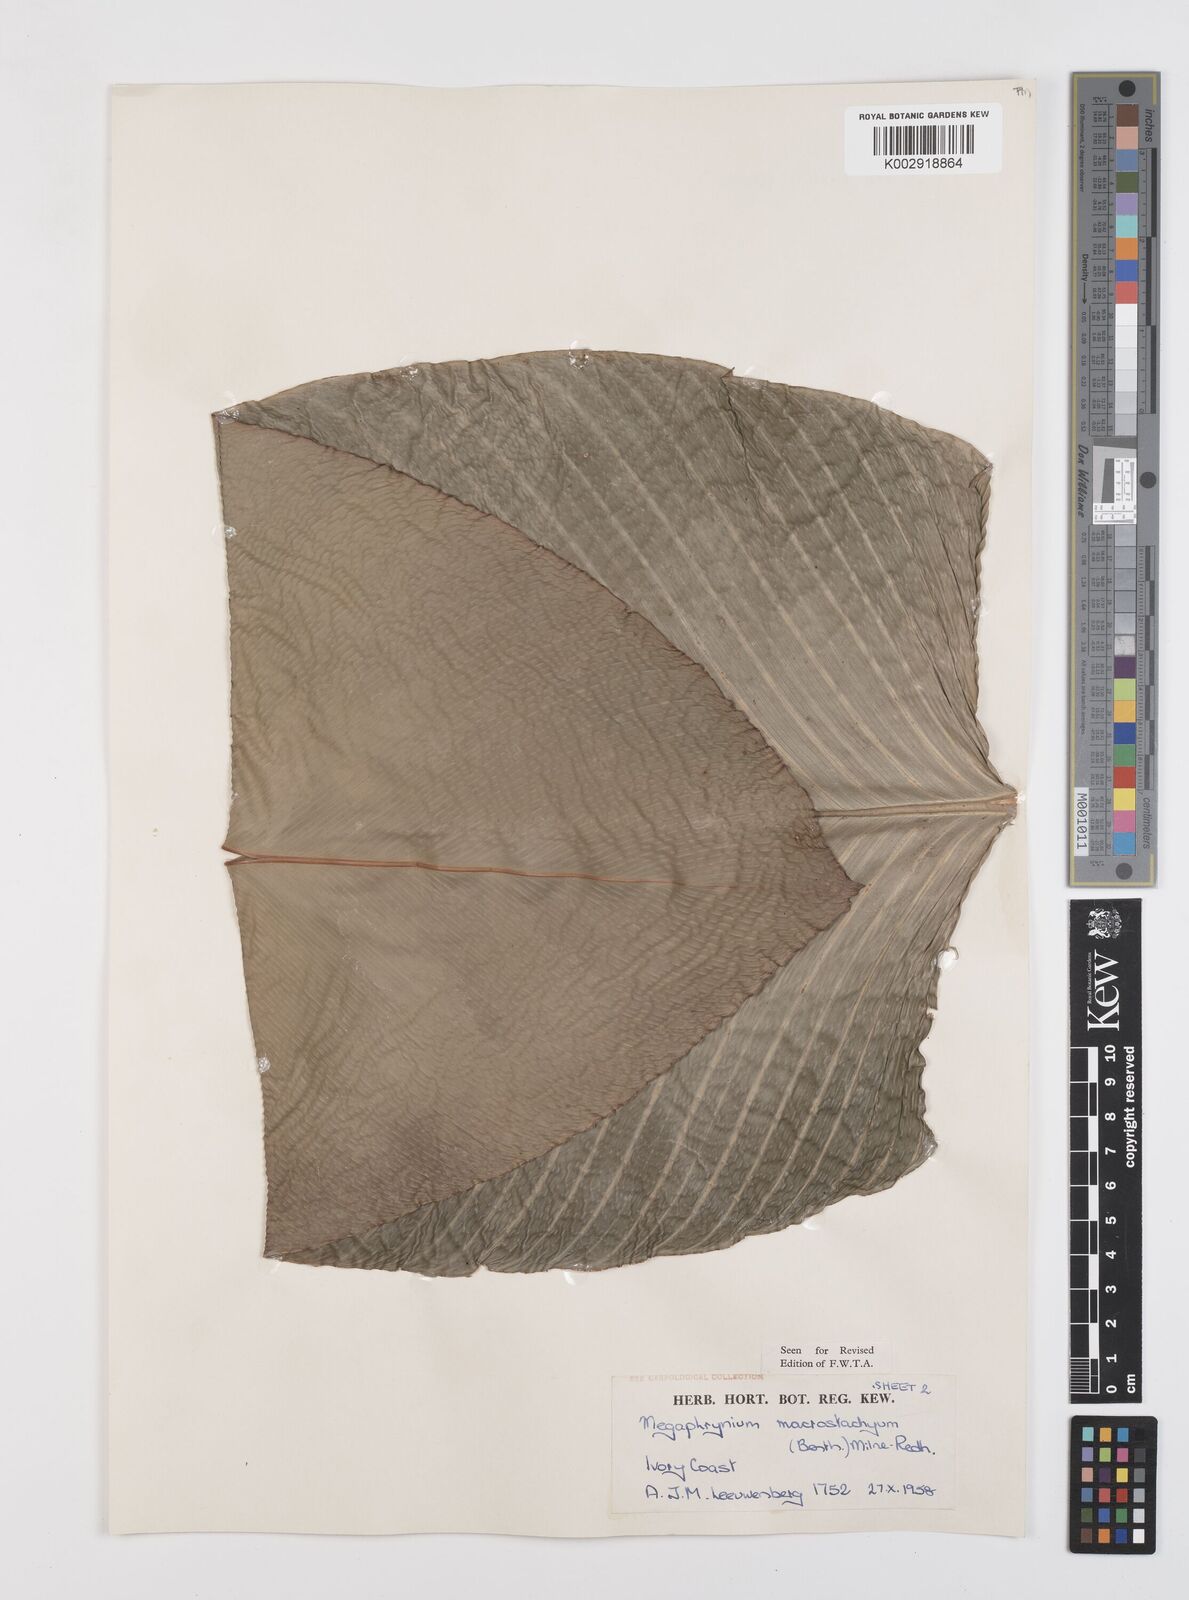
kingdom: Plantae
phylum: Tracheophyta
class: Liliopsida
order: Zingiberales
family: Marantaceae
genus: Megaphrynium
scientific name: Megaphrynium macrostachyum
